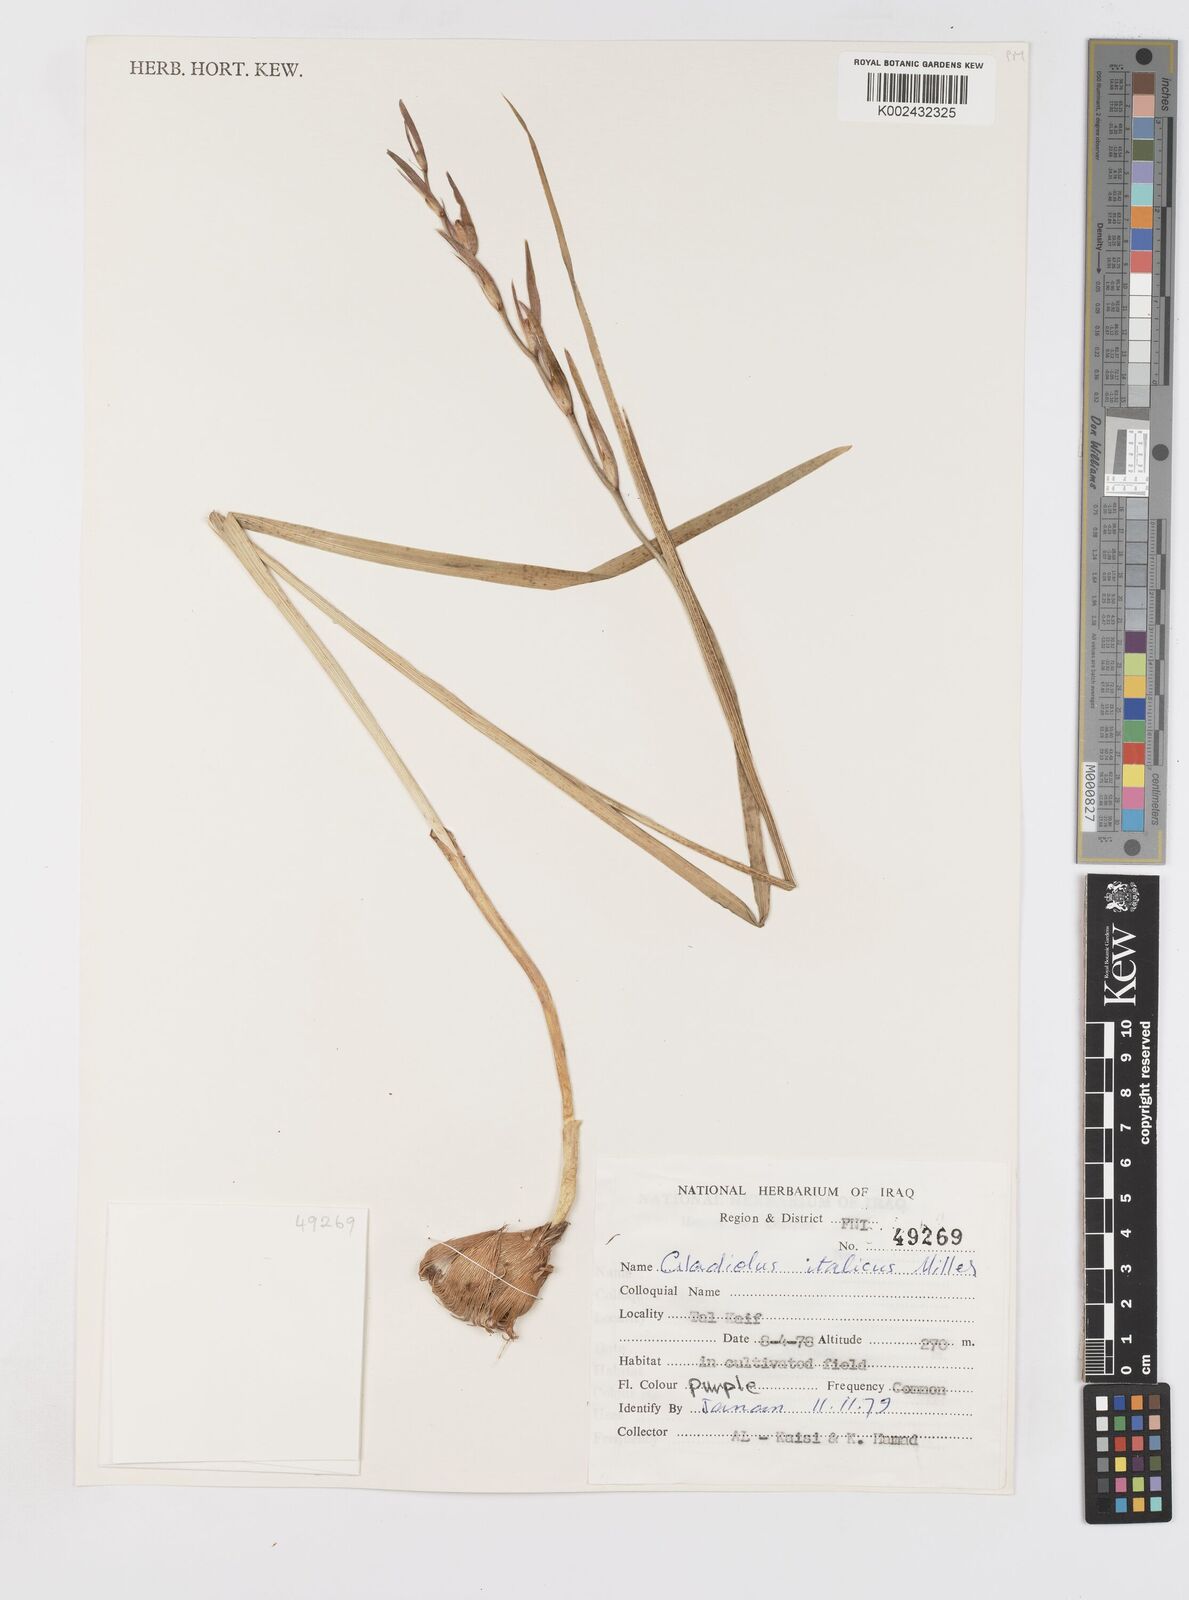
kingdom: Plantae
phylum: Tracheophyta
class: Liliopsida
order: Asparagales
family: Iridaceae
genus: Gladiolus
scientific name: Gladiolus italicus
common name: Field gladiolus
